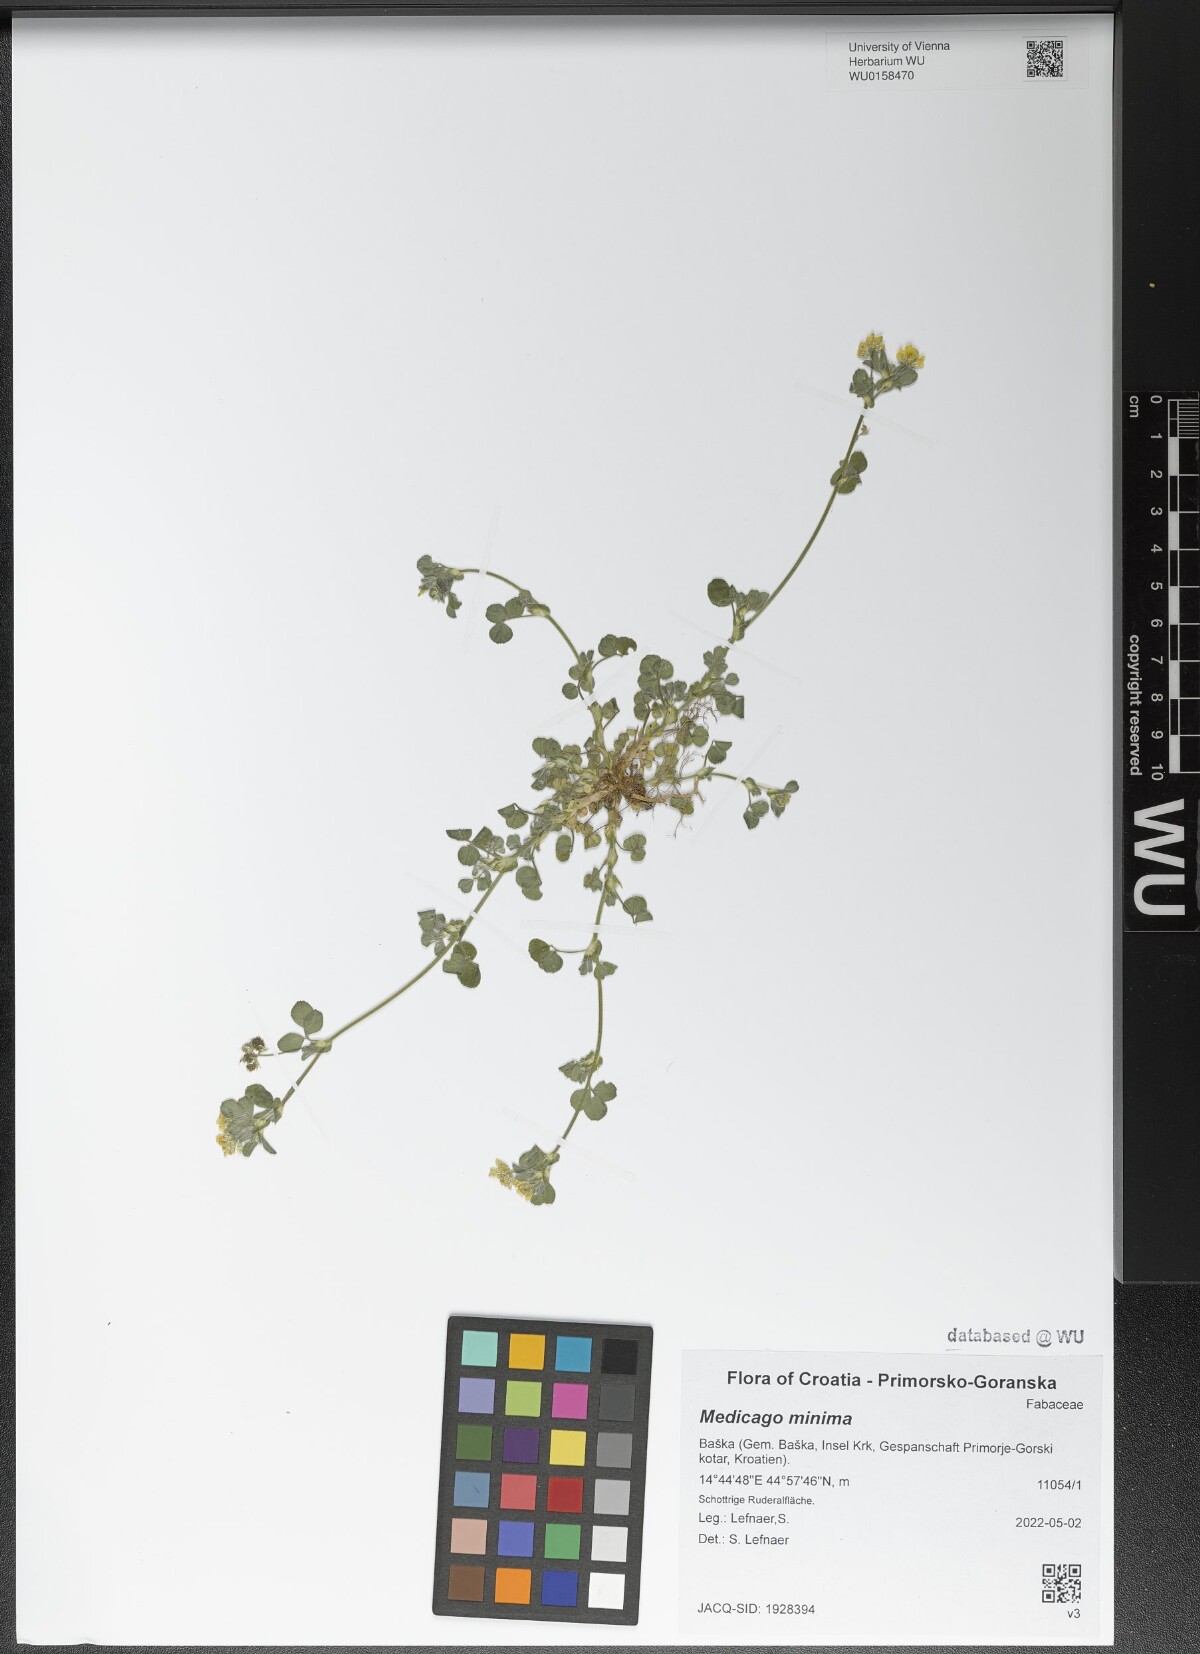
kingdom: Plantae
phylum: Tracheophyta
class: Magnoliopsida
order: Fabales
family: Fabaceae
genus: Medicago
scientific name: Medicago minima
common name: Little bur-clover
